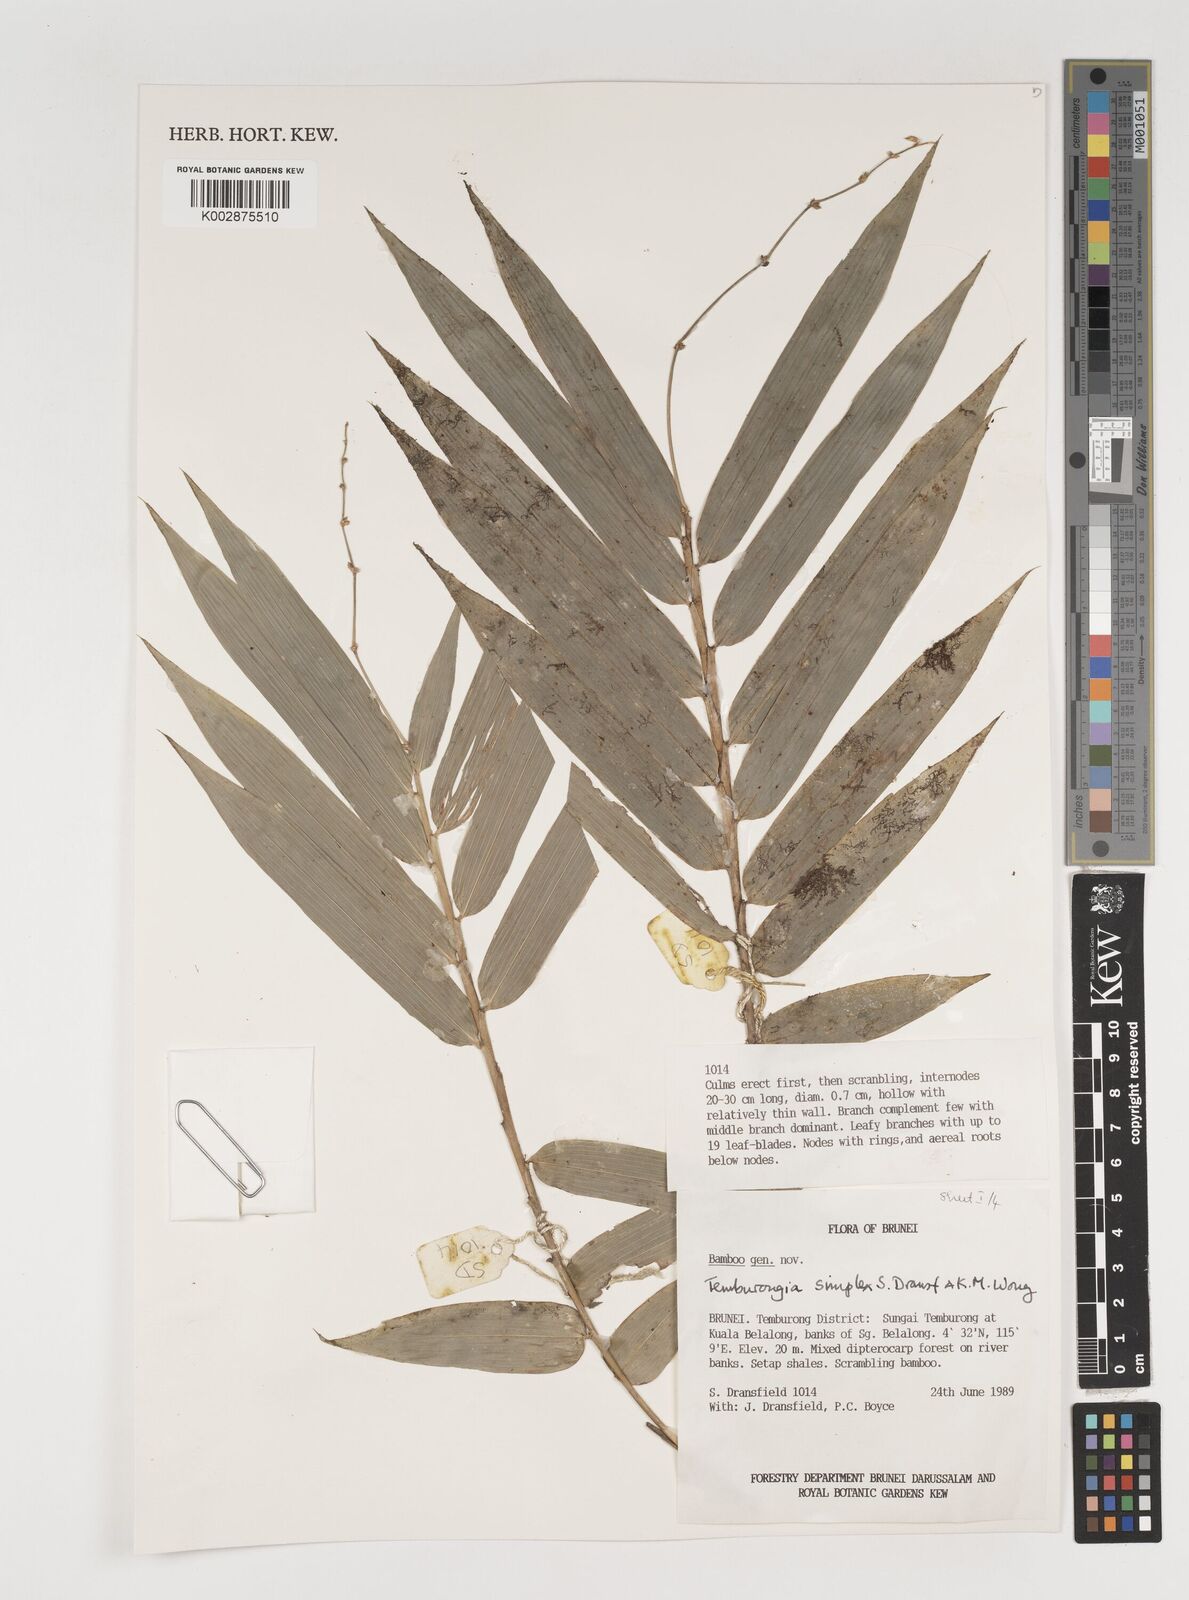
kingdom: Plantae
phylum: Tracheophyta
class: Liliopsida
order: Poales
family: Poaceae
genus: Temburongia
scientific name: Temburongia simplex
